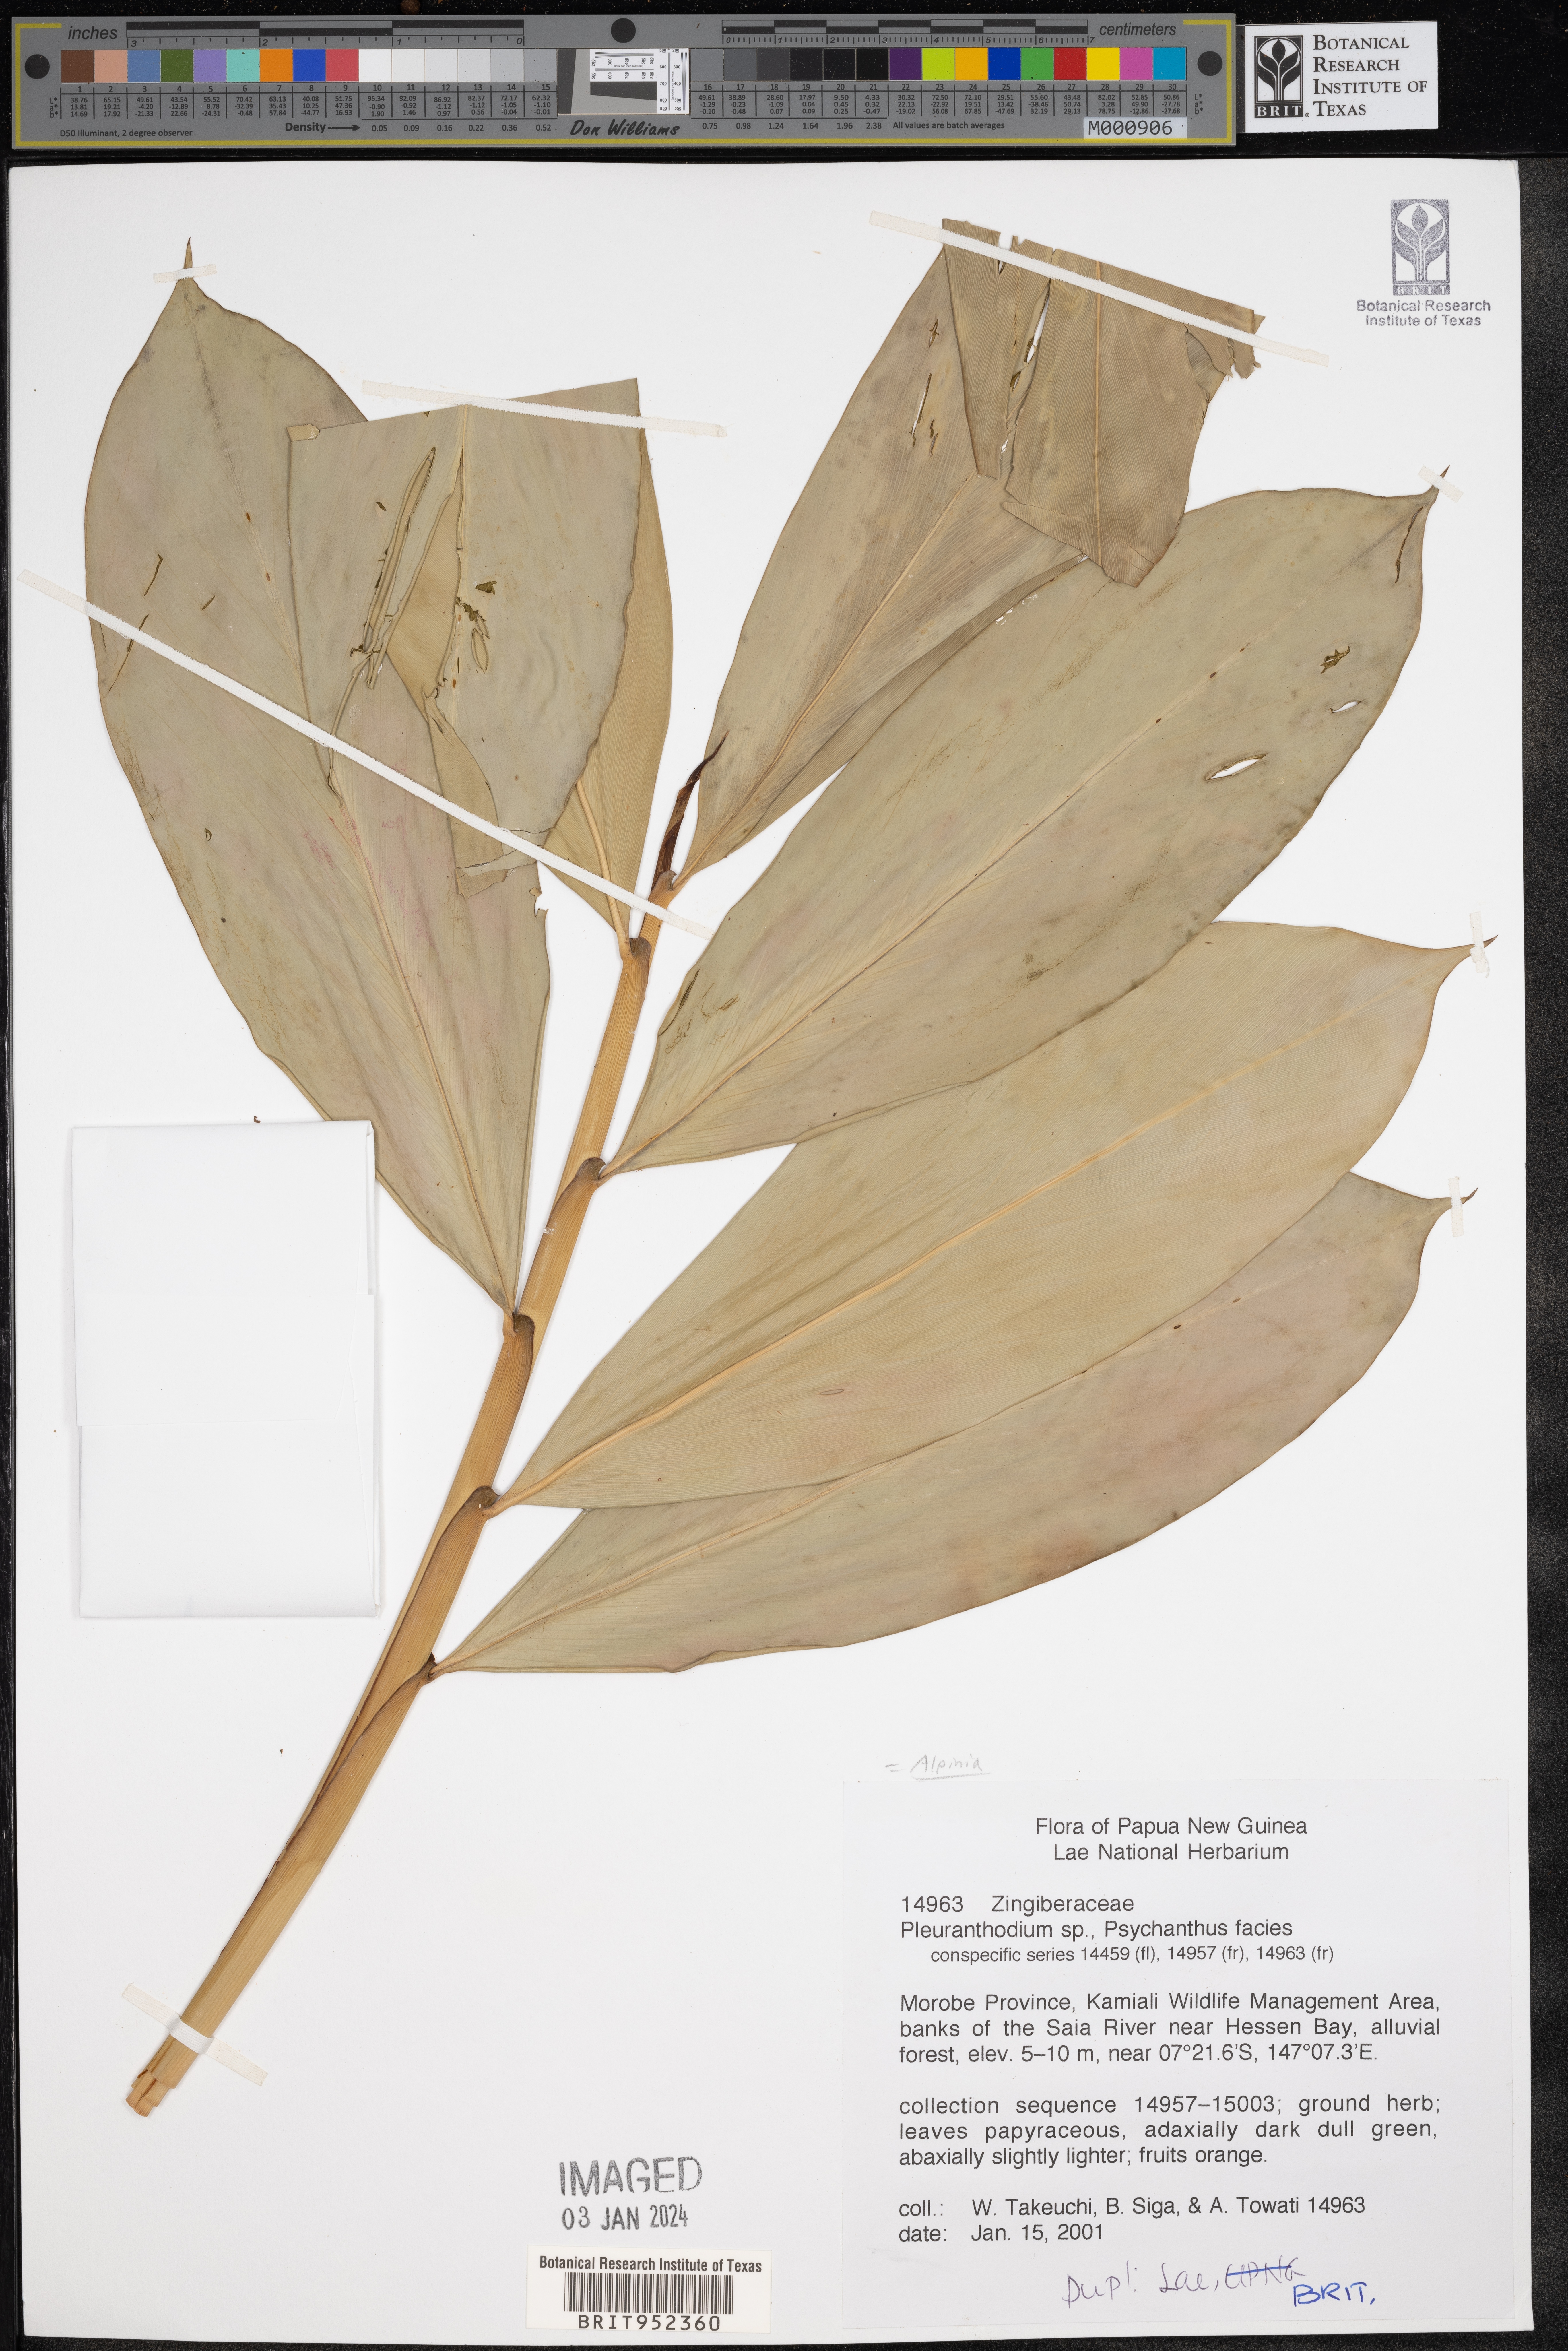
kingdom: Plantae
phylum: Tracheophyta
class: Liliopsida
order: Zingiberales
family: Zingiberaceae
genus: Alpinia
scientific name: Alpinia
